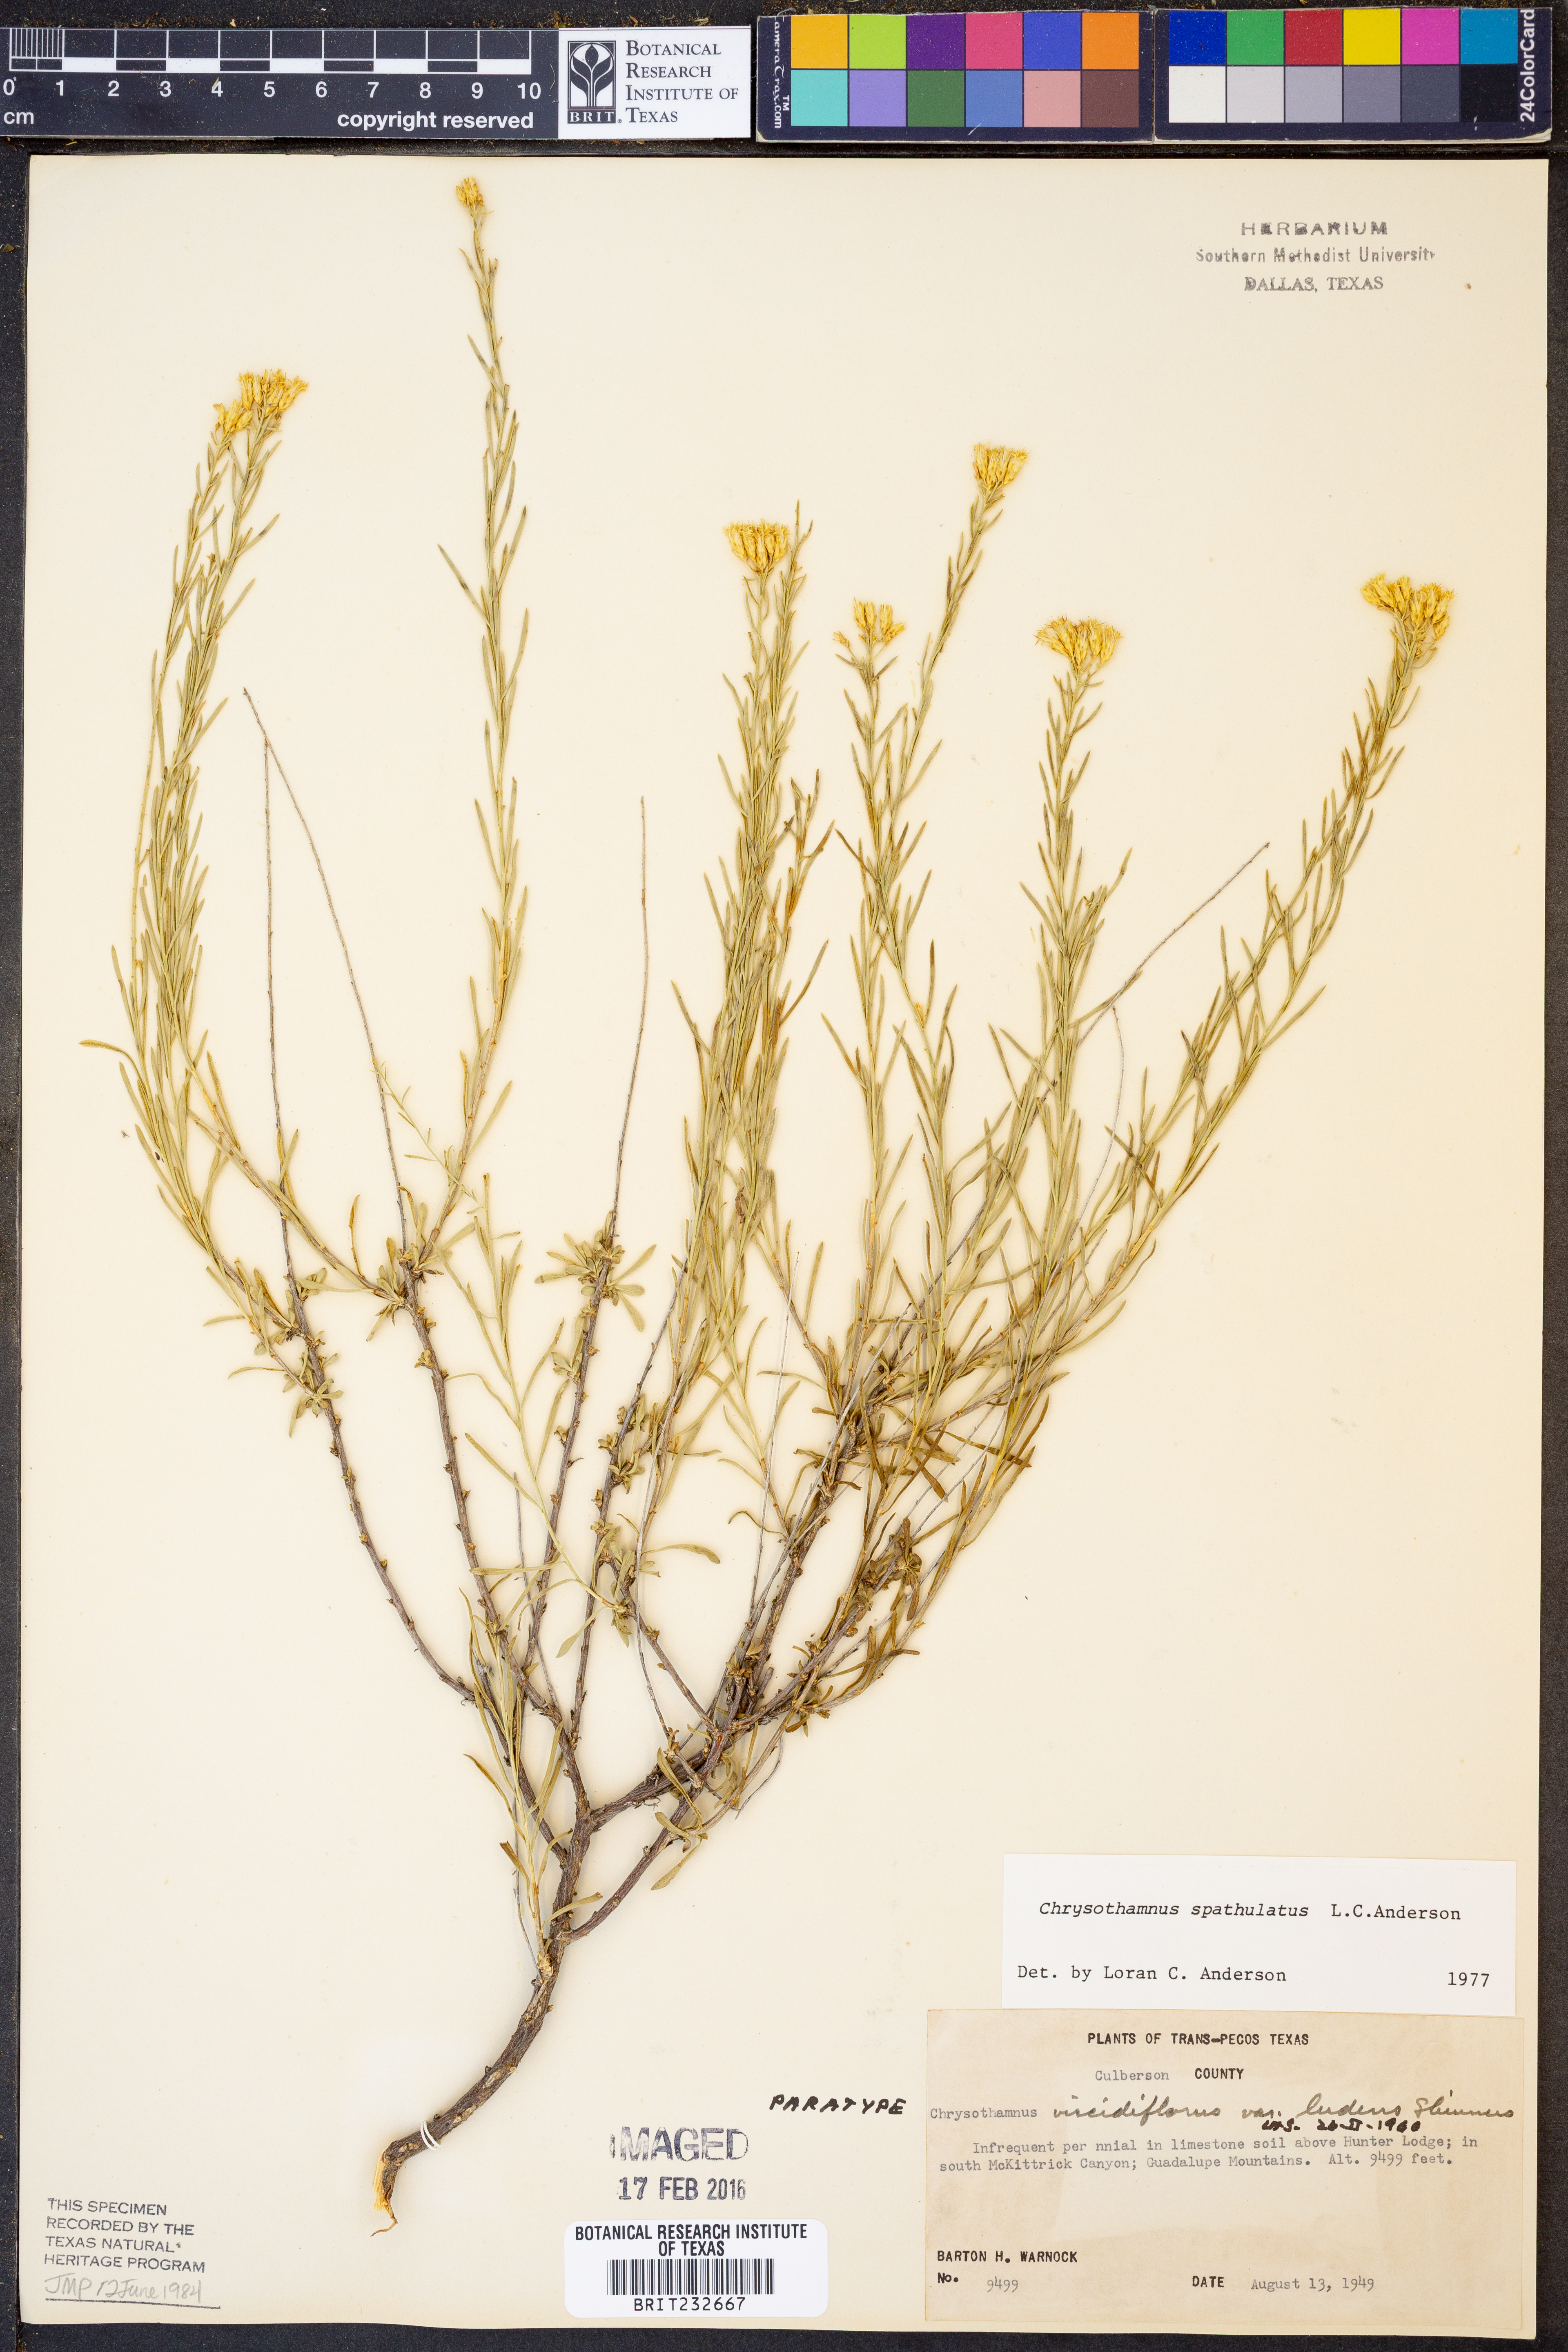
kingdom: Plantae
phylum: Tracheophyta
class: Magnoliopsida
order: Asterales
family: Asteraceae
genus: Lorandersonia
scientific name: Lorandersonia spathulata
